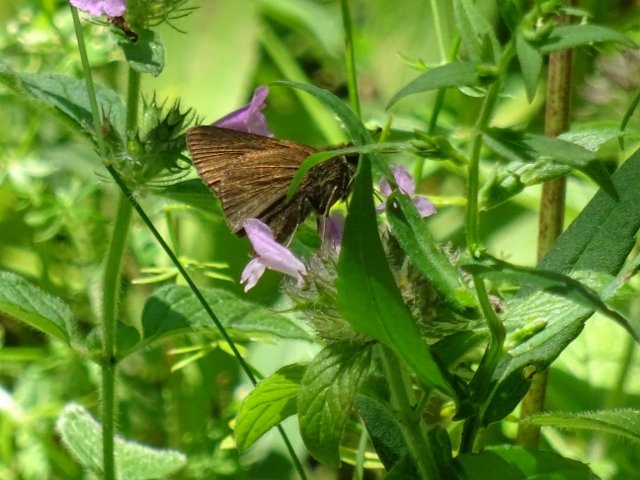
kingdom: Animalia
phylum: Arthropoda
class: Insecta
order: Lepidoptera
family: Hesperiidae
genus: Euphyes
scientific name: Euphyes vestris
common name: Dun Skipper
